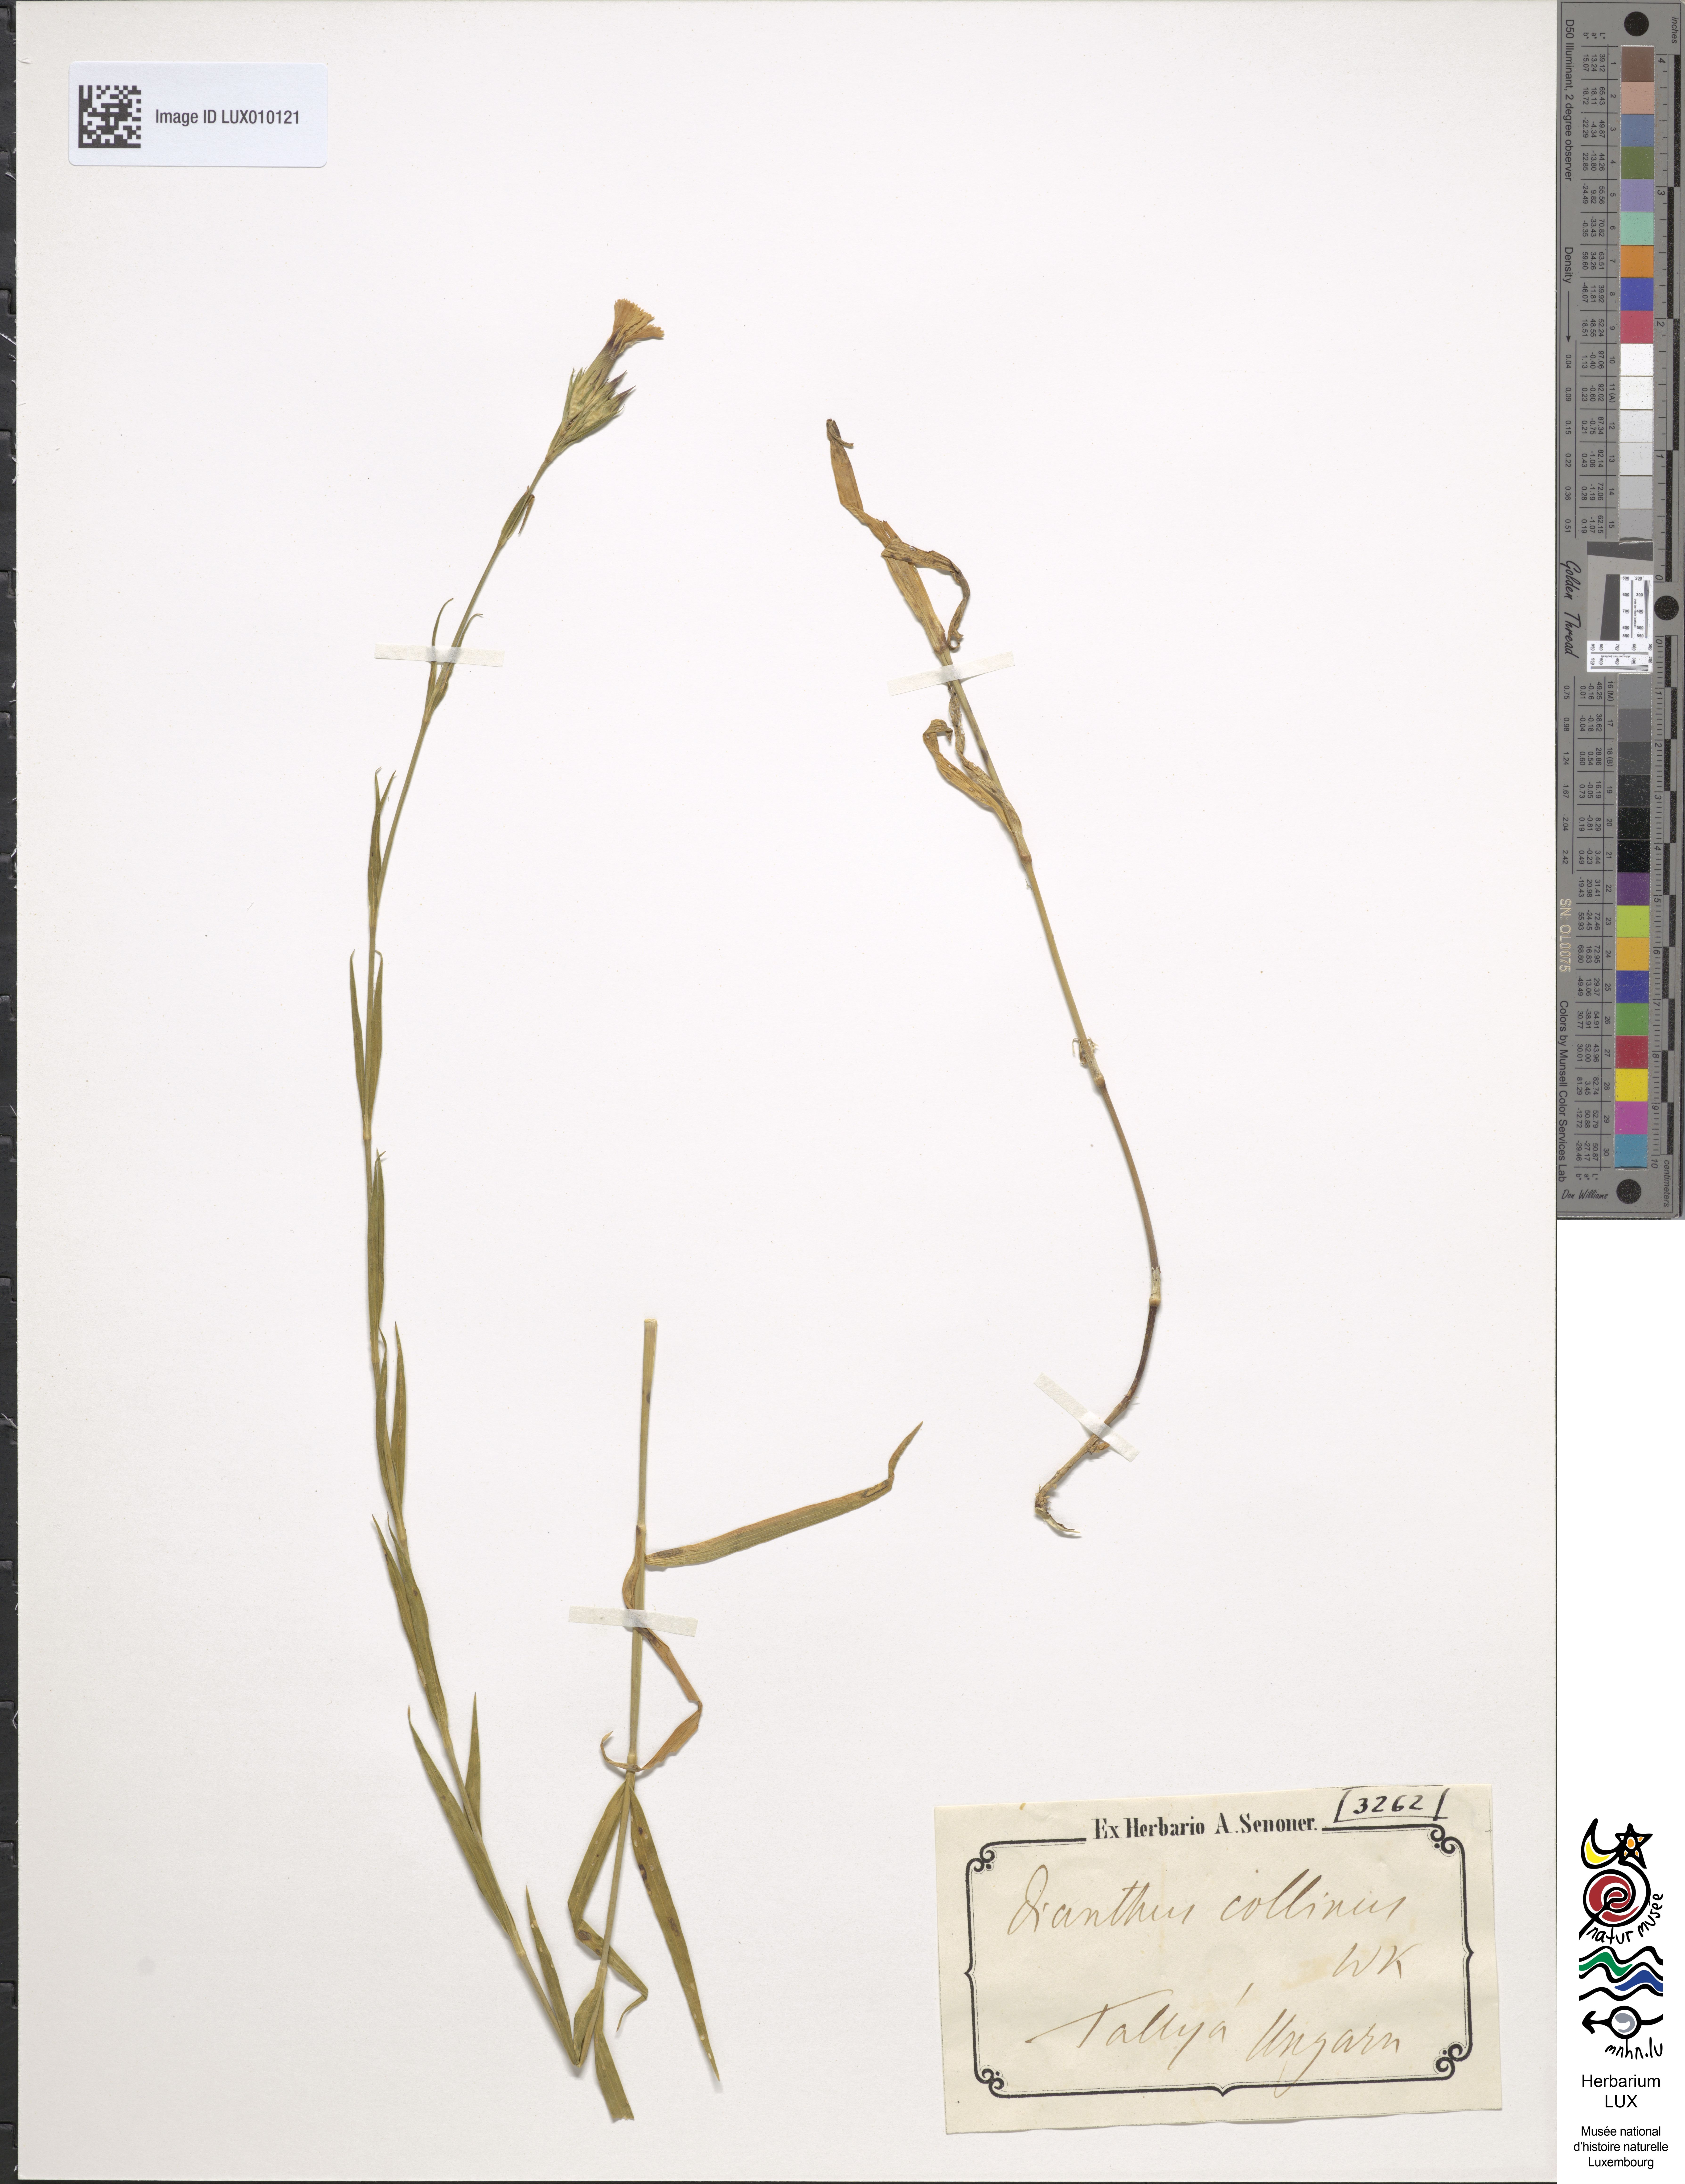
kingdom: Plantae
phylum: Tracheophyta
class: Magnoliopsida
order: Caryophyllales
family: Caryophyllaceae
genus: Dianthus
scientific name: Dianthus seguieri
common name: Ragged pink
